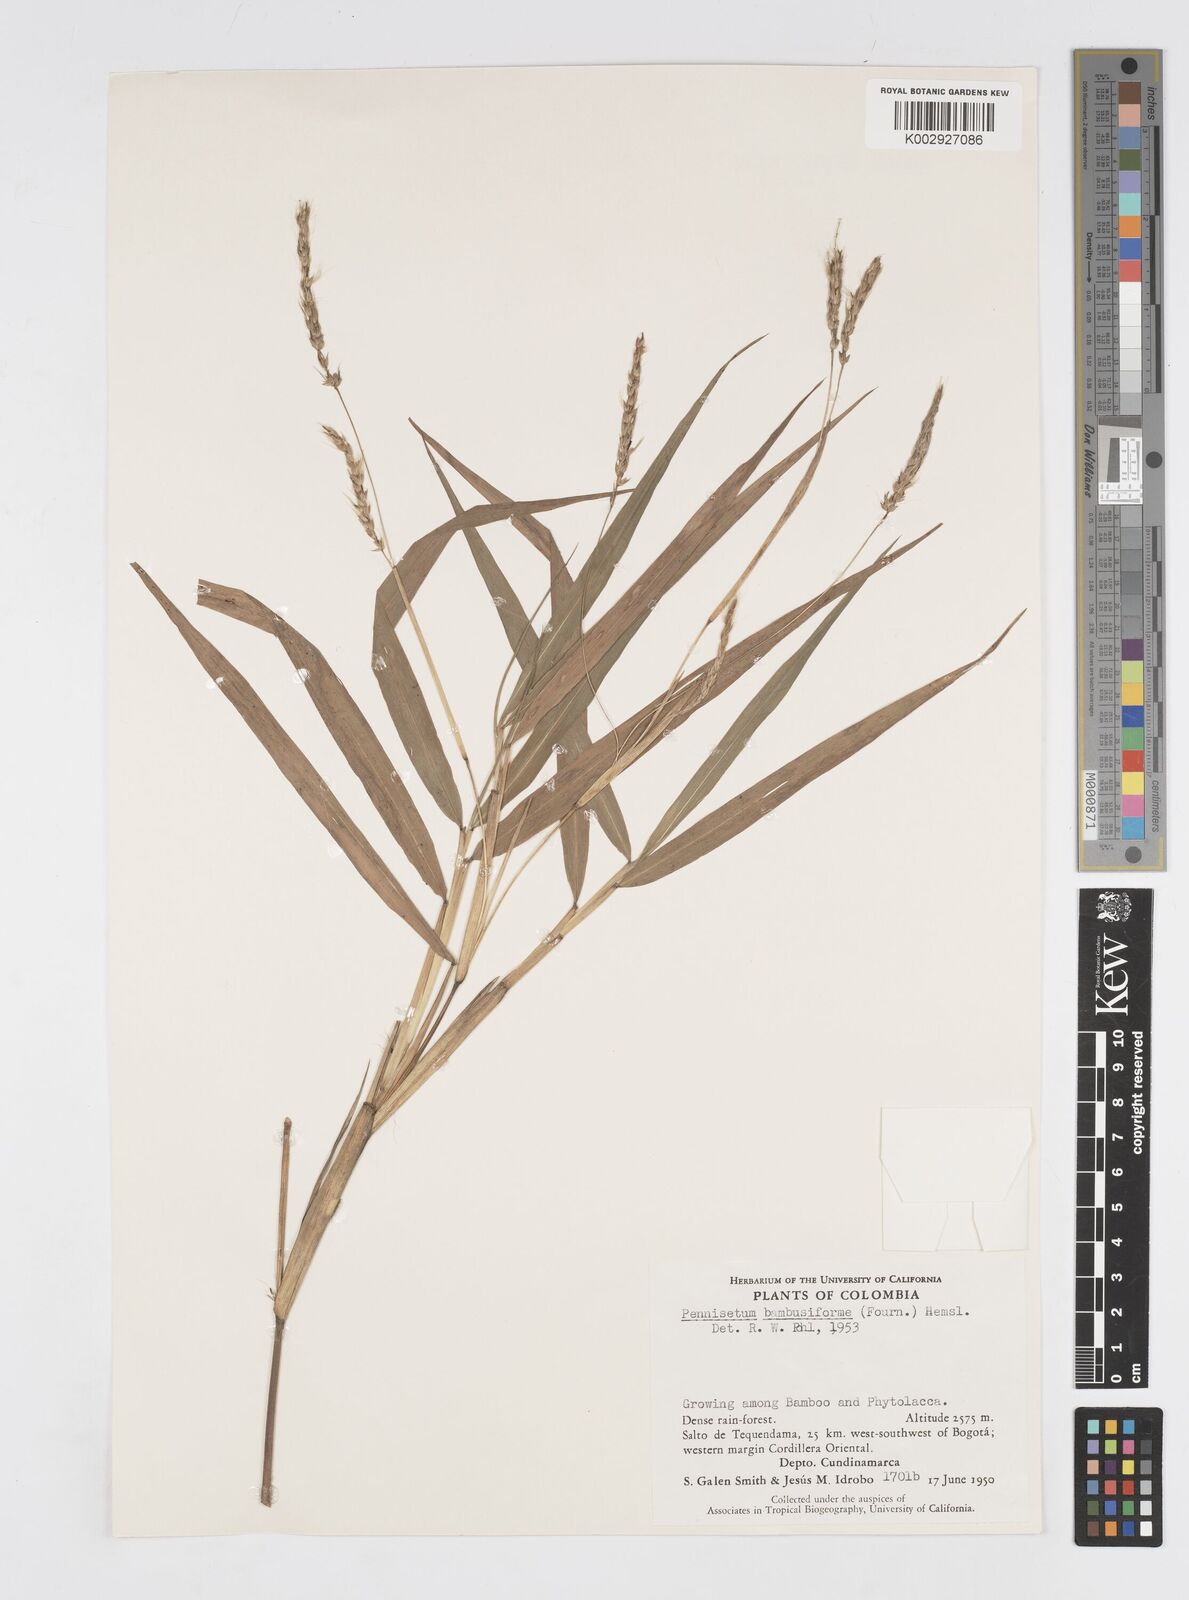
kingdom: Plantae
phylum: Tracheophyta
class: Liliopsida
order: Poales
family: Poaceae
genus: Cenchrus
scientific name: Cenchrus tristachyus
